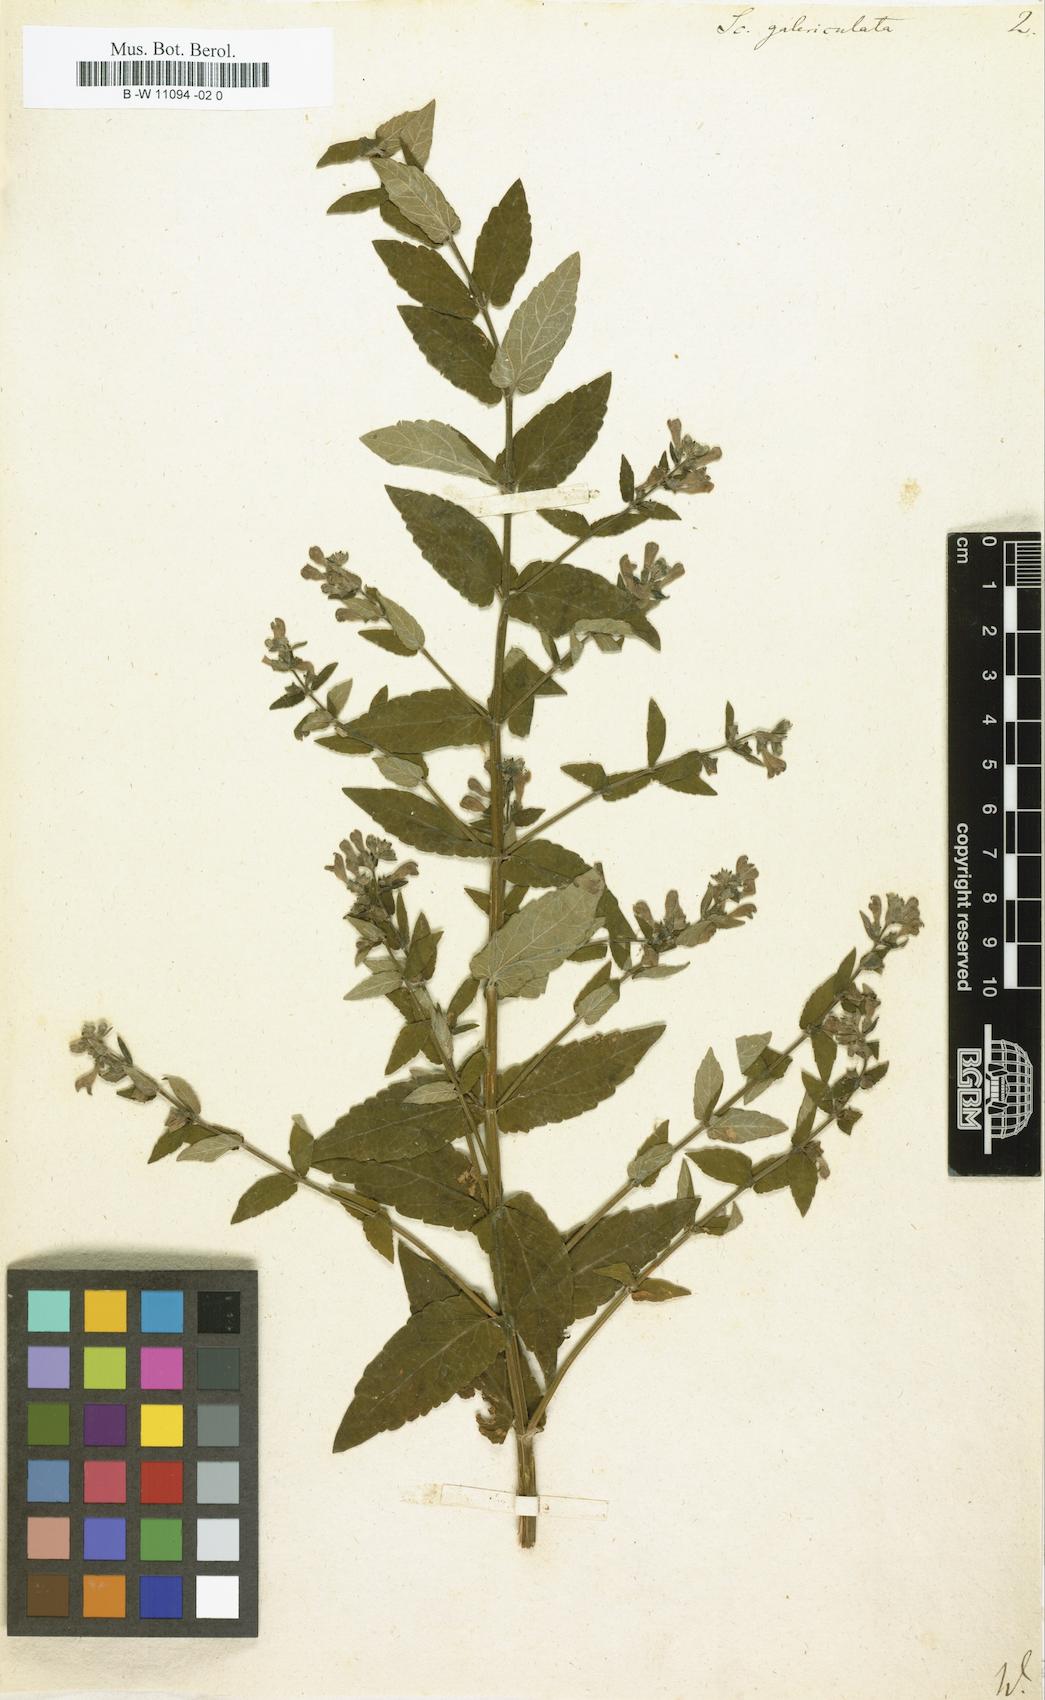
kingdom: Plantae
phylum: Tracheophyta
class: Magnoliopsida
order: Lamiales
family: Lamiaceae
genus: Scutellaria
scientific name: Scutellaria galericulata
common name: Skullcap
